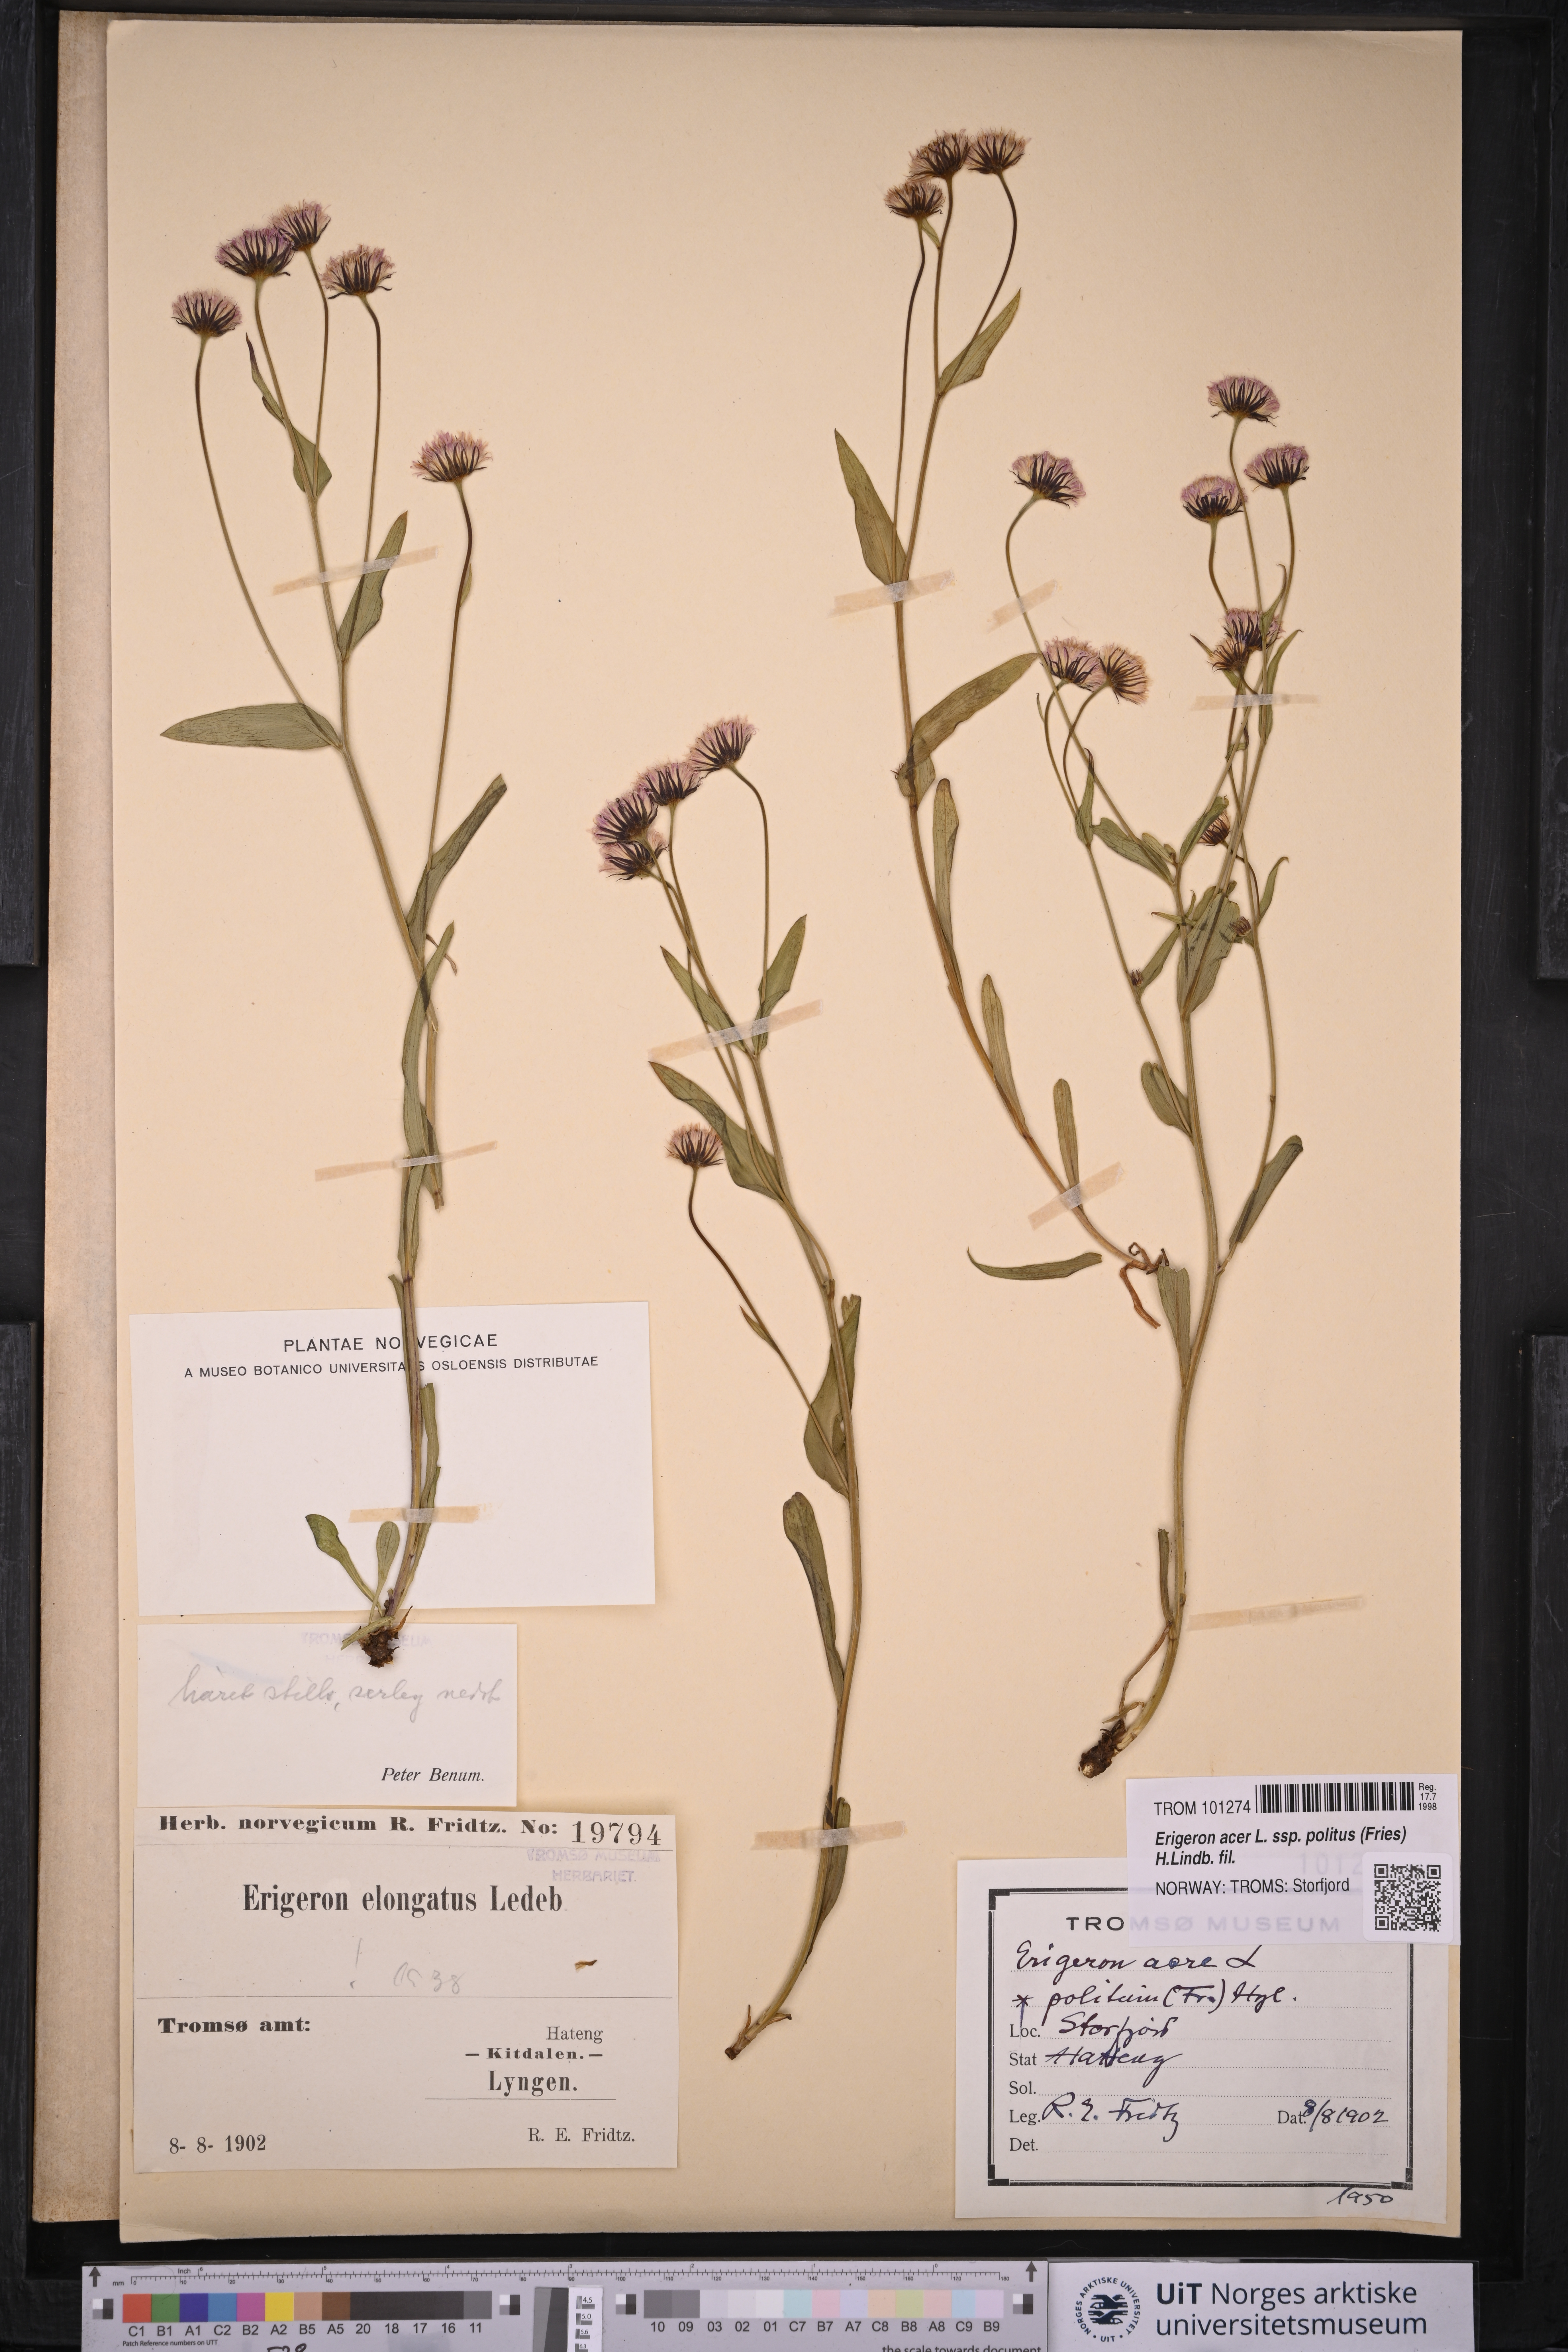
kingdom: Plantae
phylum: Tracheophyta
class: Magnoliopsida
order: Asterales
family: Asteraceae
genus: Erigeron
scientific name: Erigeron politus
